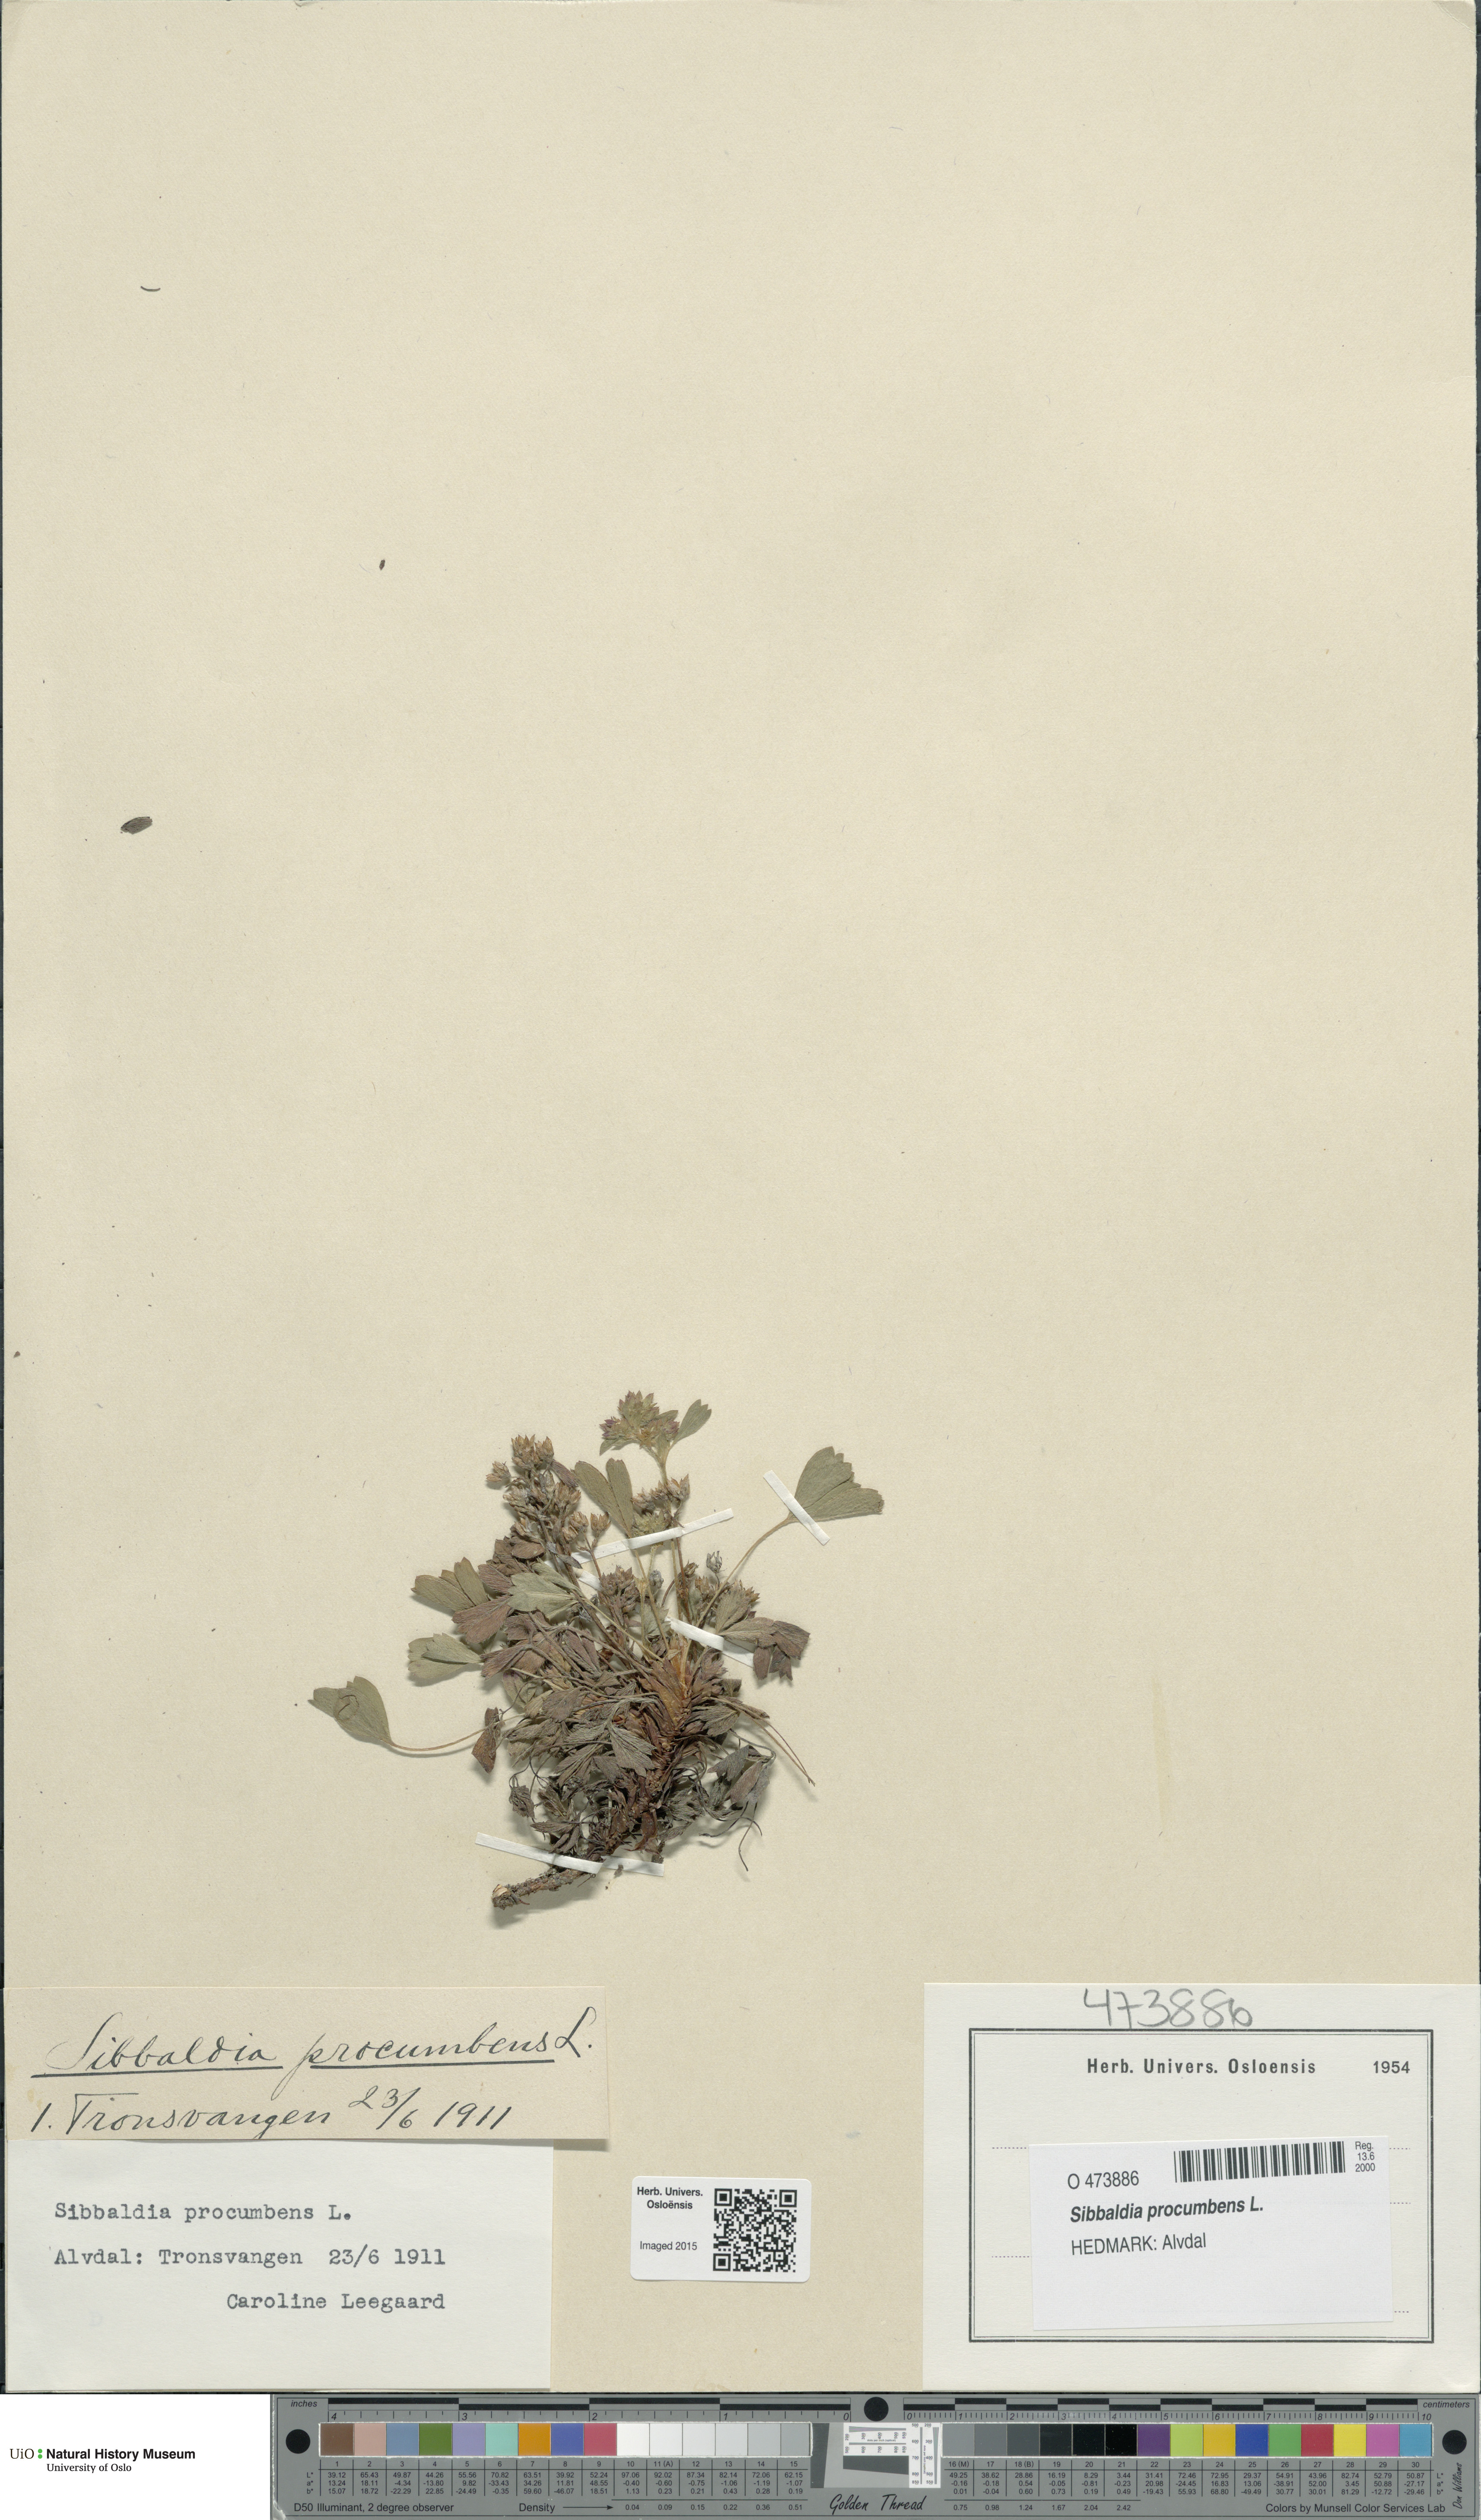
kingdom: Plantae
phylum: Tracheophyta
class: Magnoliopsida
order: Rosales
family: Rosaceae
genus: Sibbaldia
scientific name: Sibbaldia procumbens
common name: Creeping sibbaldia
